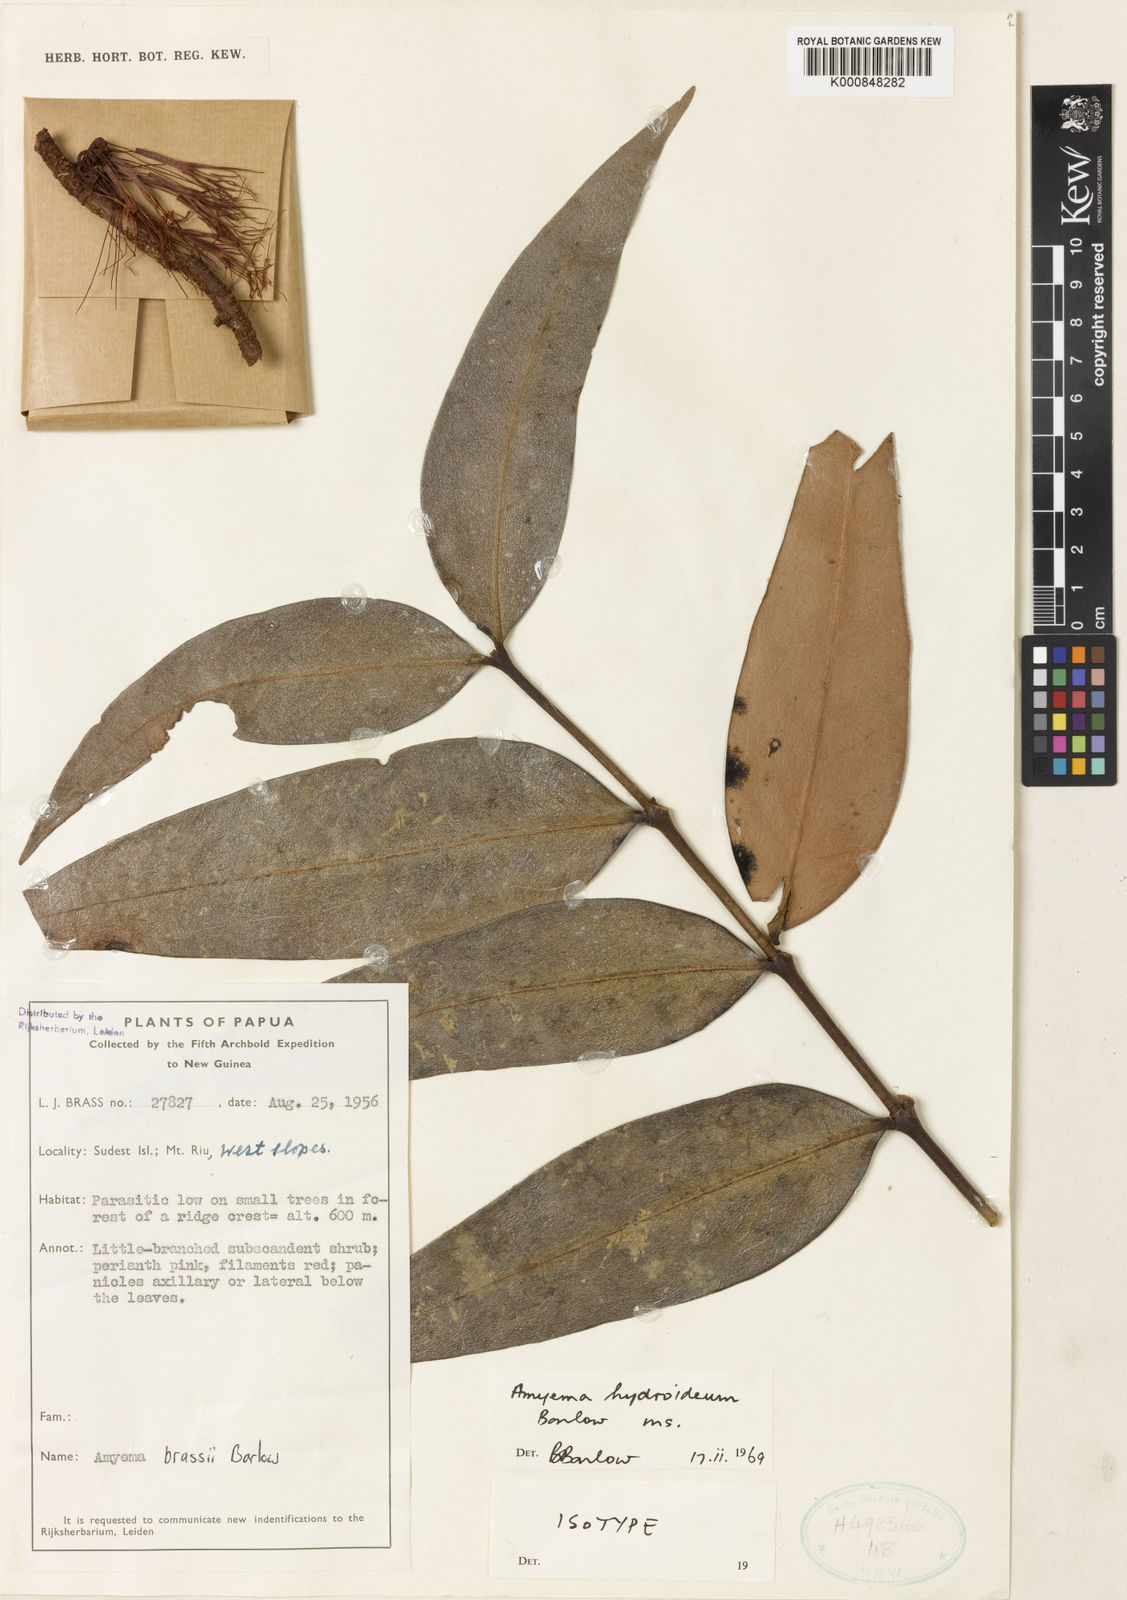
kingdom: Plantae
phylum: Tracheophyta
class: Magnoliopsida
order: Santalales
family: Loranthaceae
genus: Amyema
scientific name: Amyema brassii
